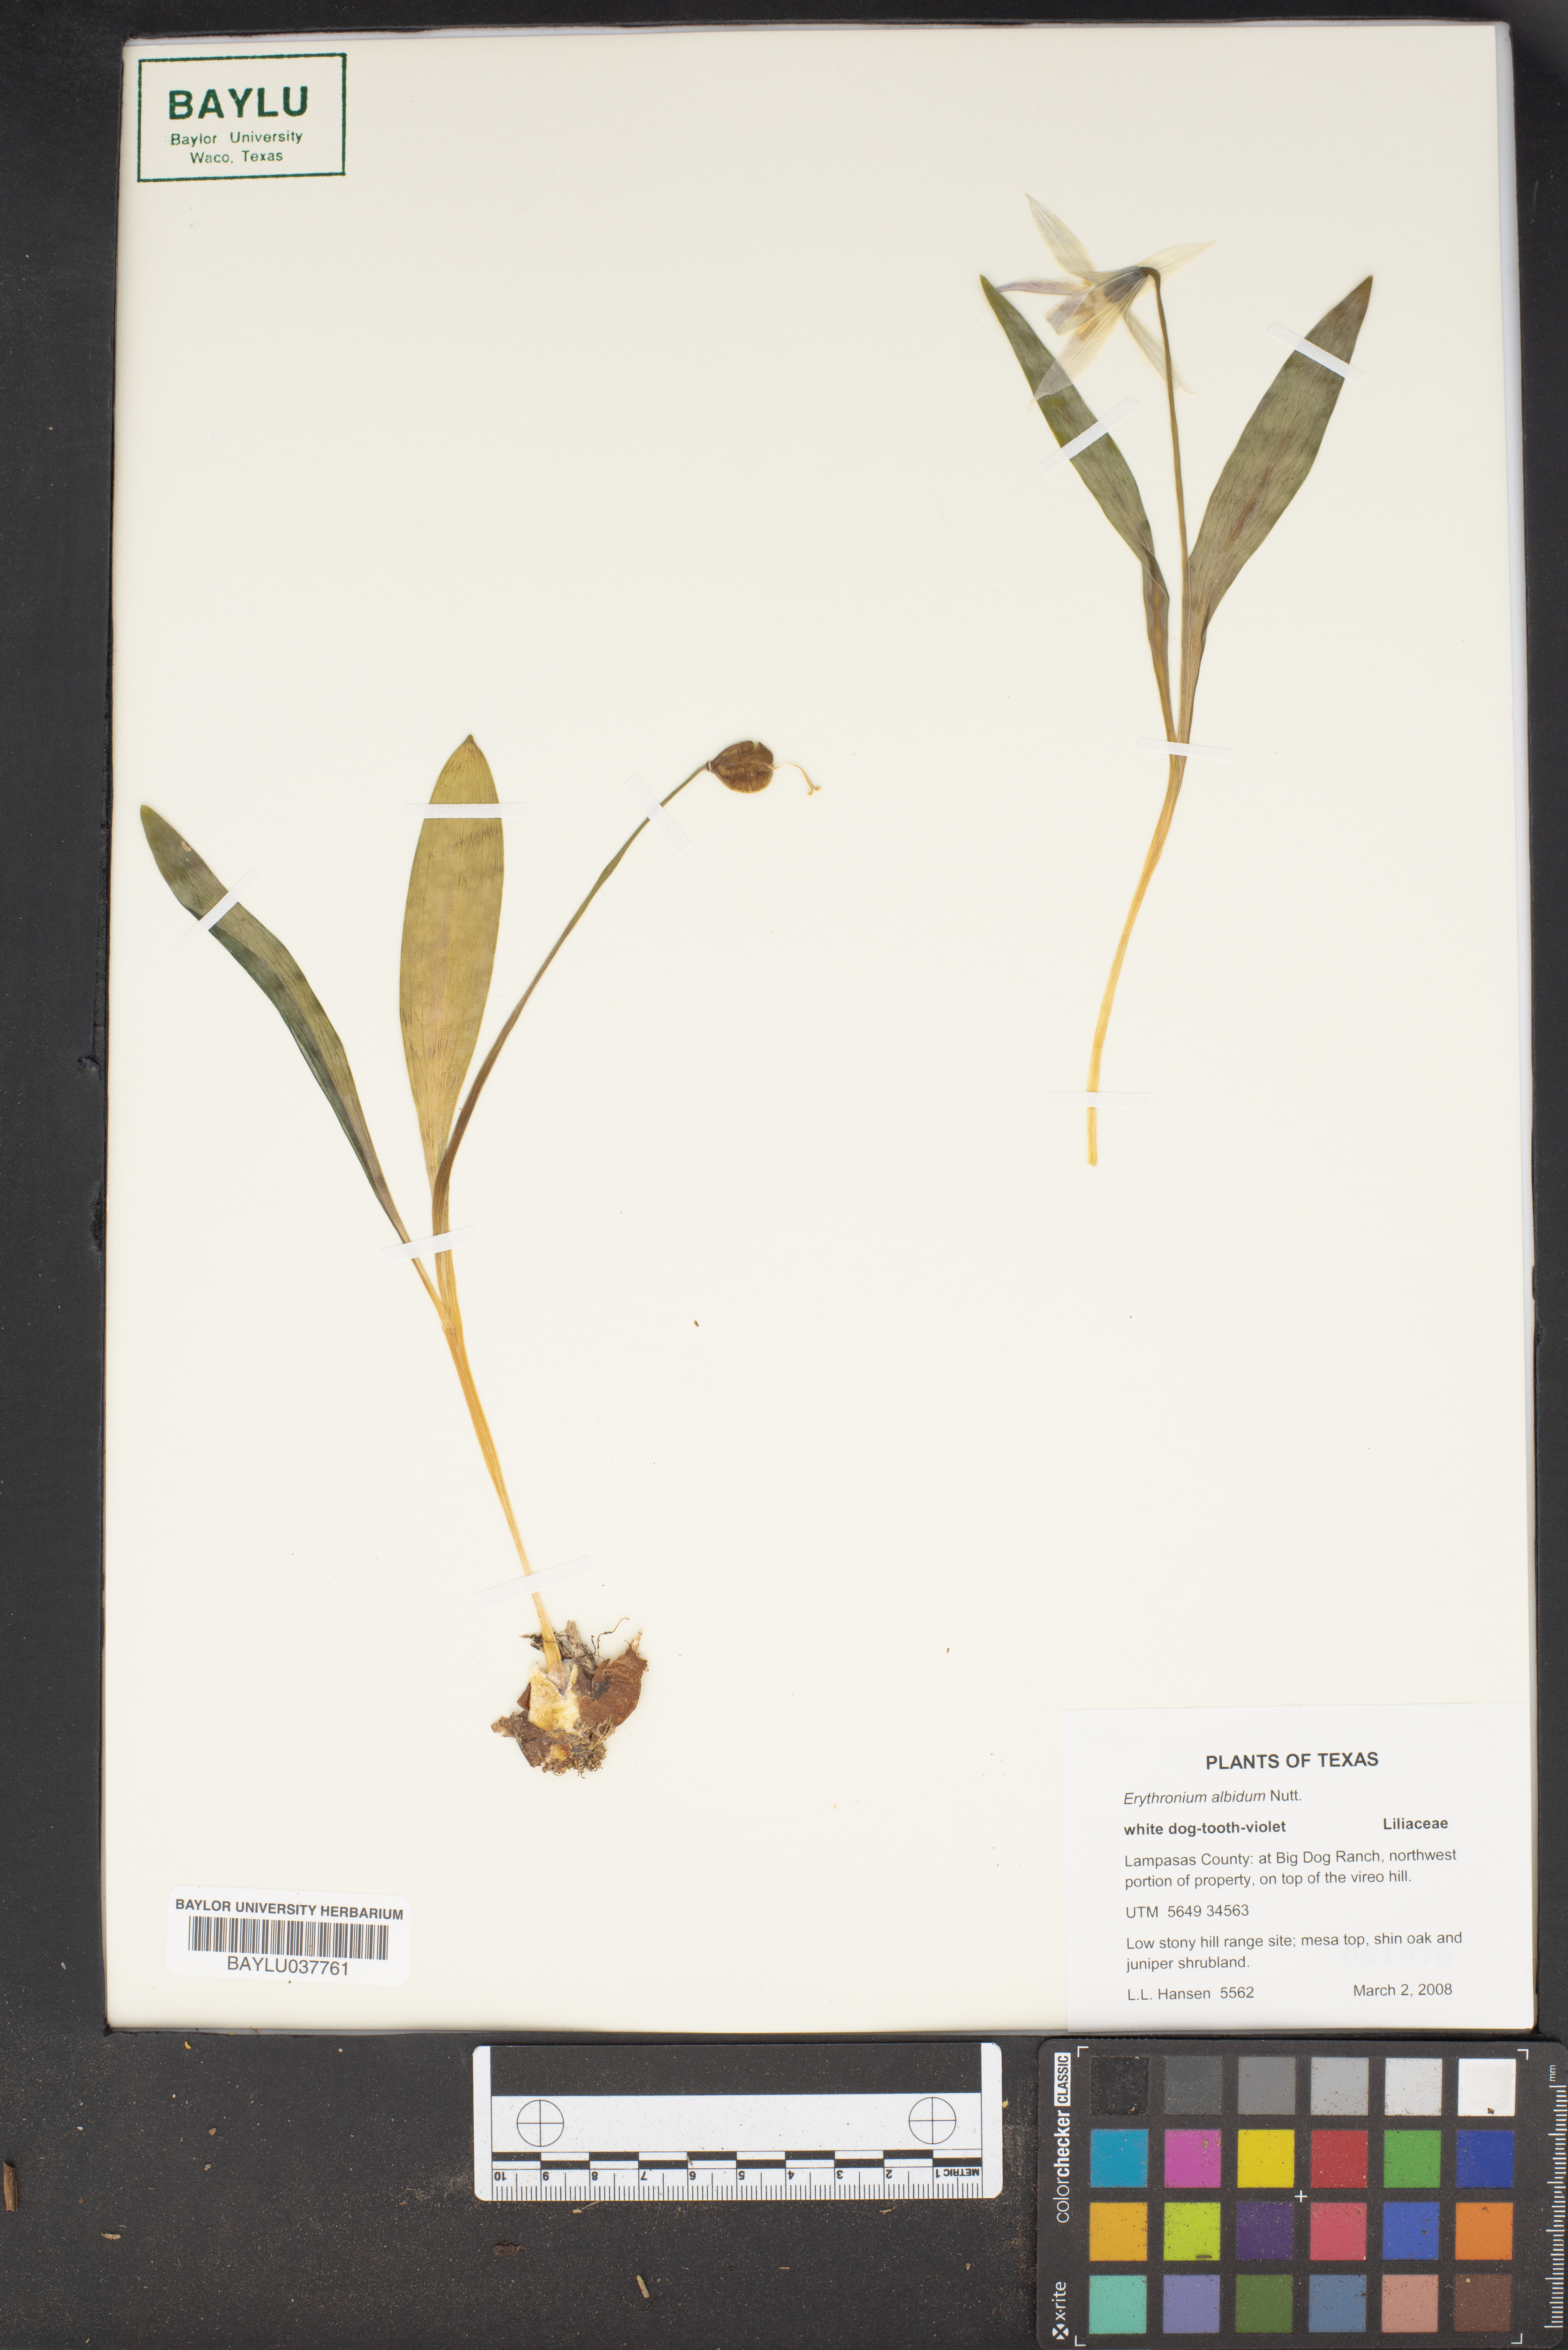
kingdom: Plantae
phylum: Tracheophyta
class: Liliopsida
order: Liliales
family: Liliaceae
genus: Erythronium
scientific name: Erythronium albidum
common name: White trout-lily
